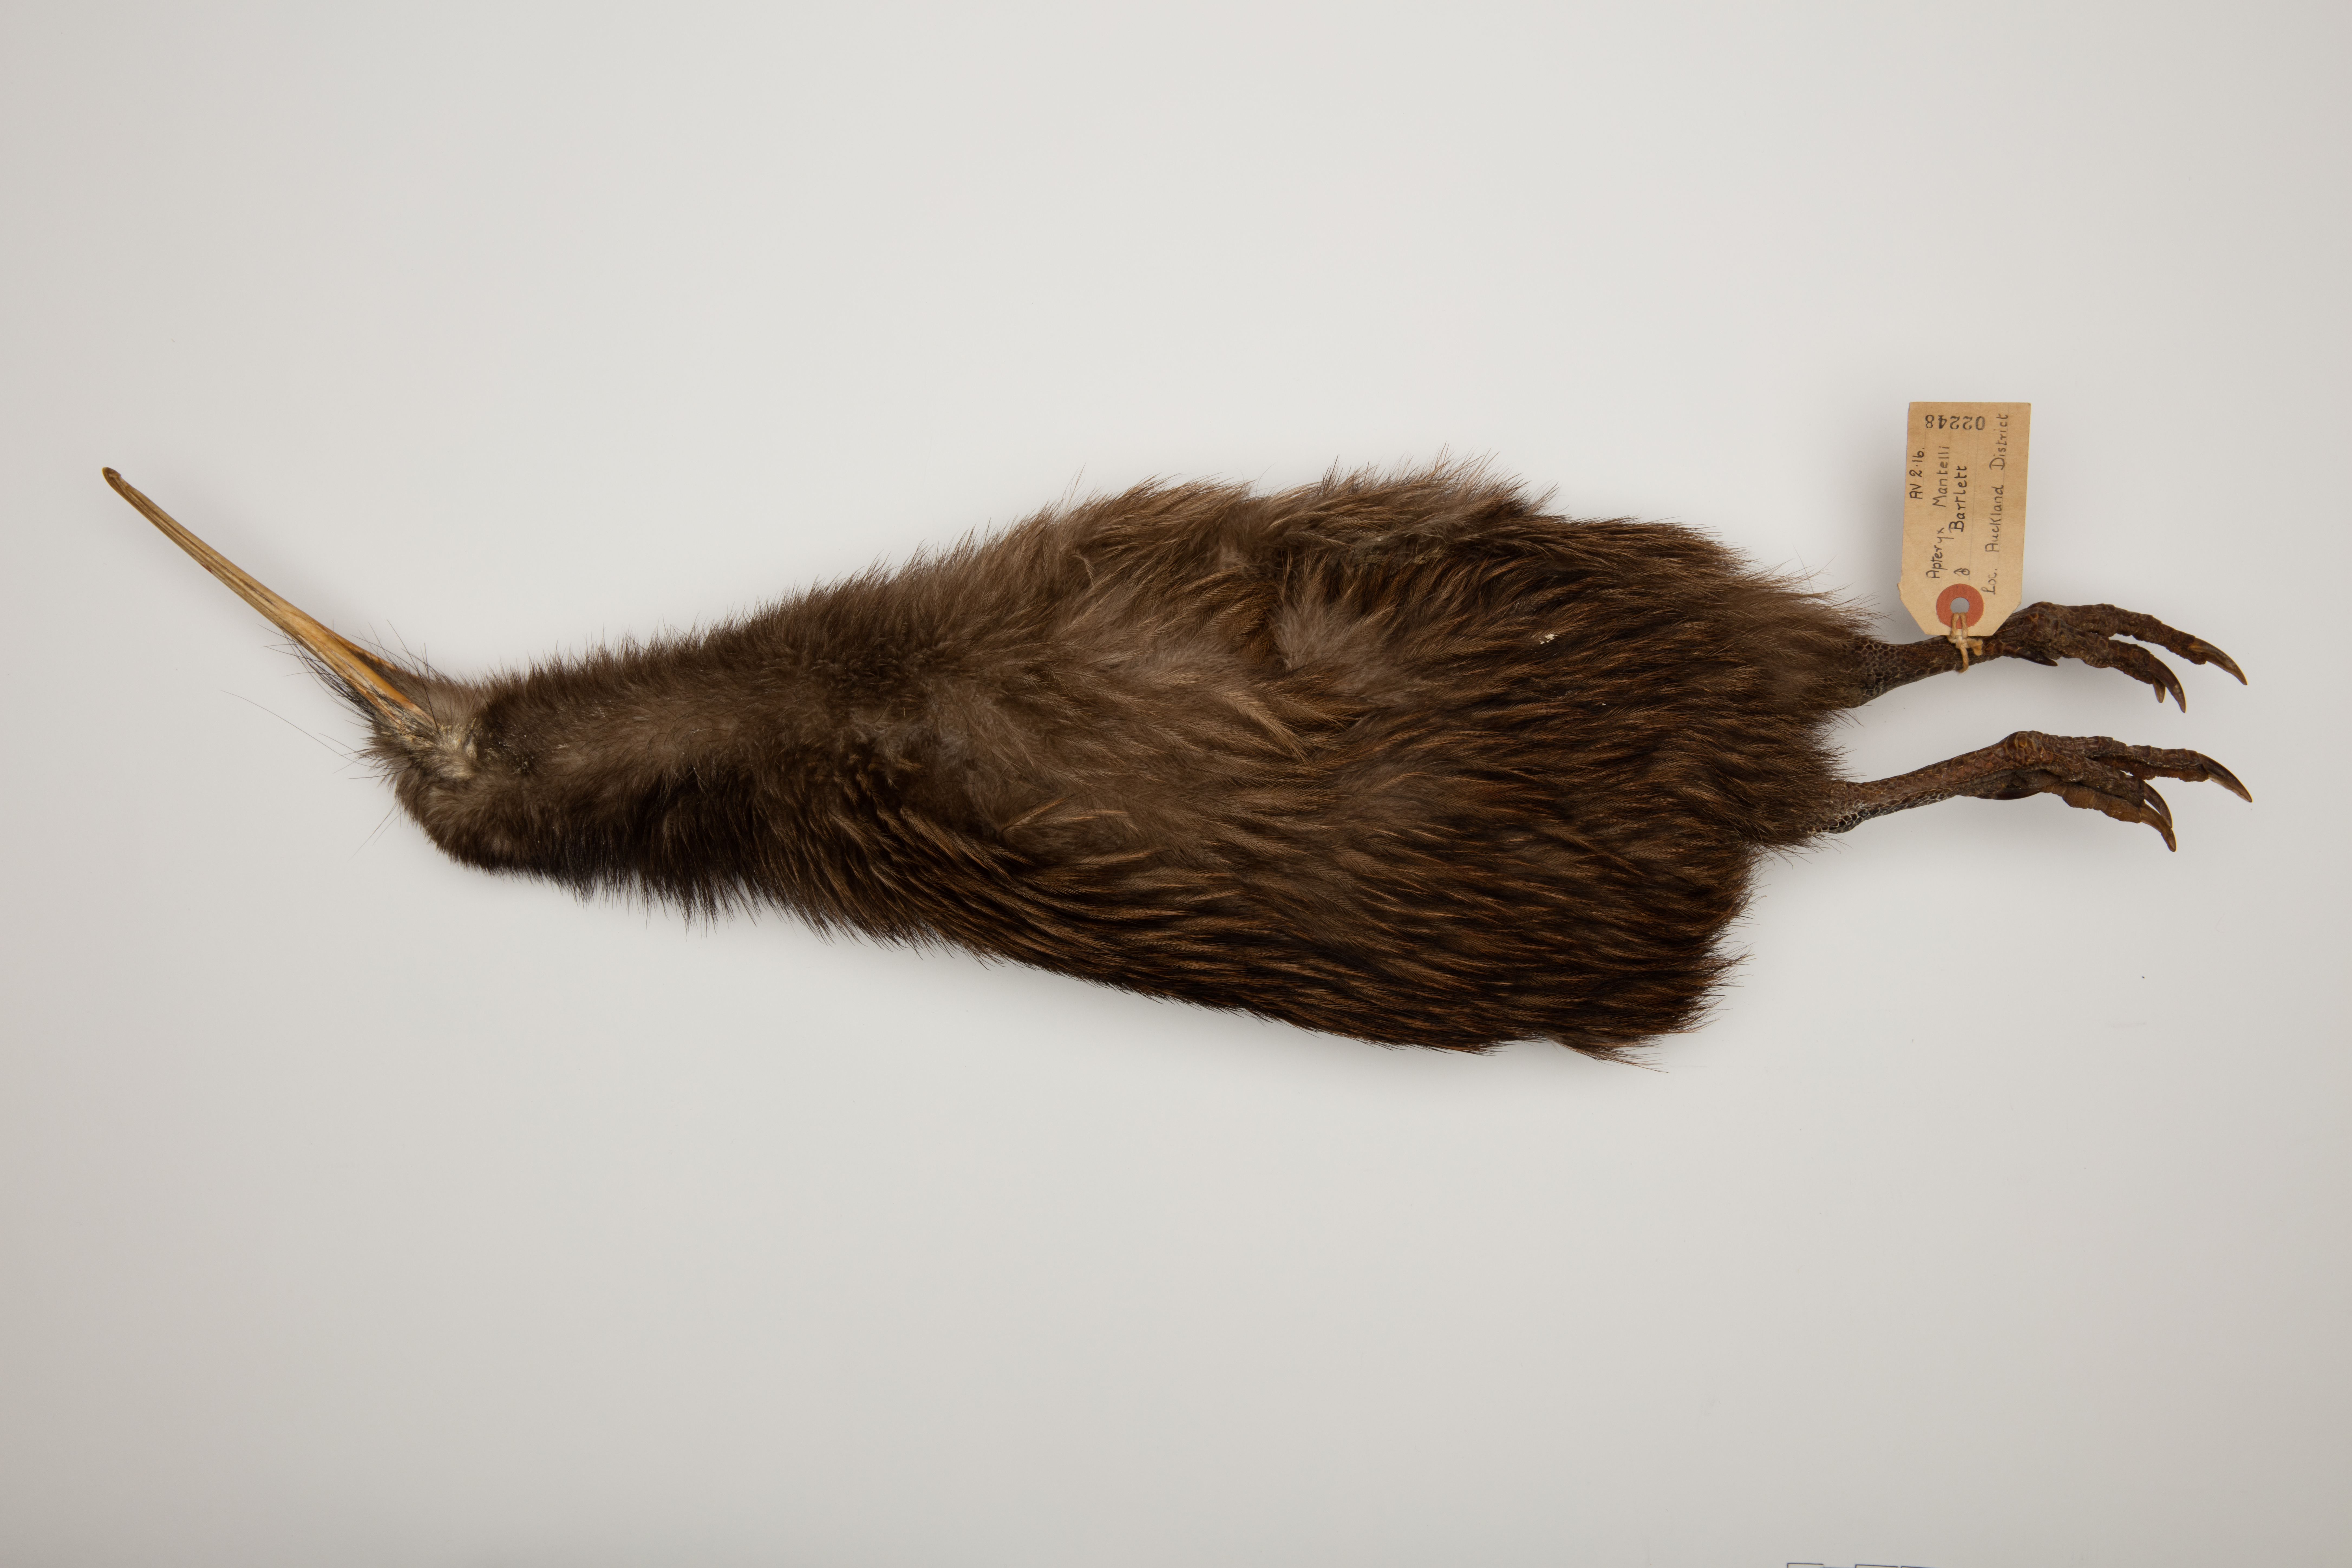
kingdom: Animalia
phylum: Chordata
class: Aves
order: Apterygiformes
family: Apterygidae
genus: Apteryx
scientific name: Apteryx mantelli
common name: North island brown kiwi
